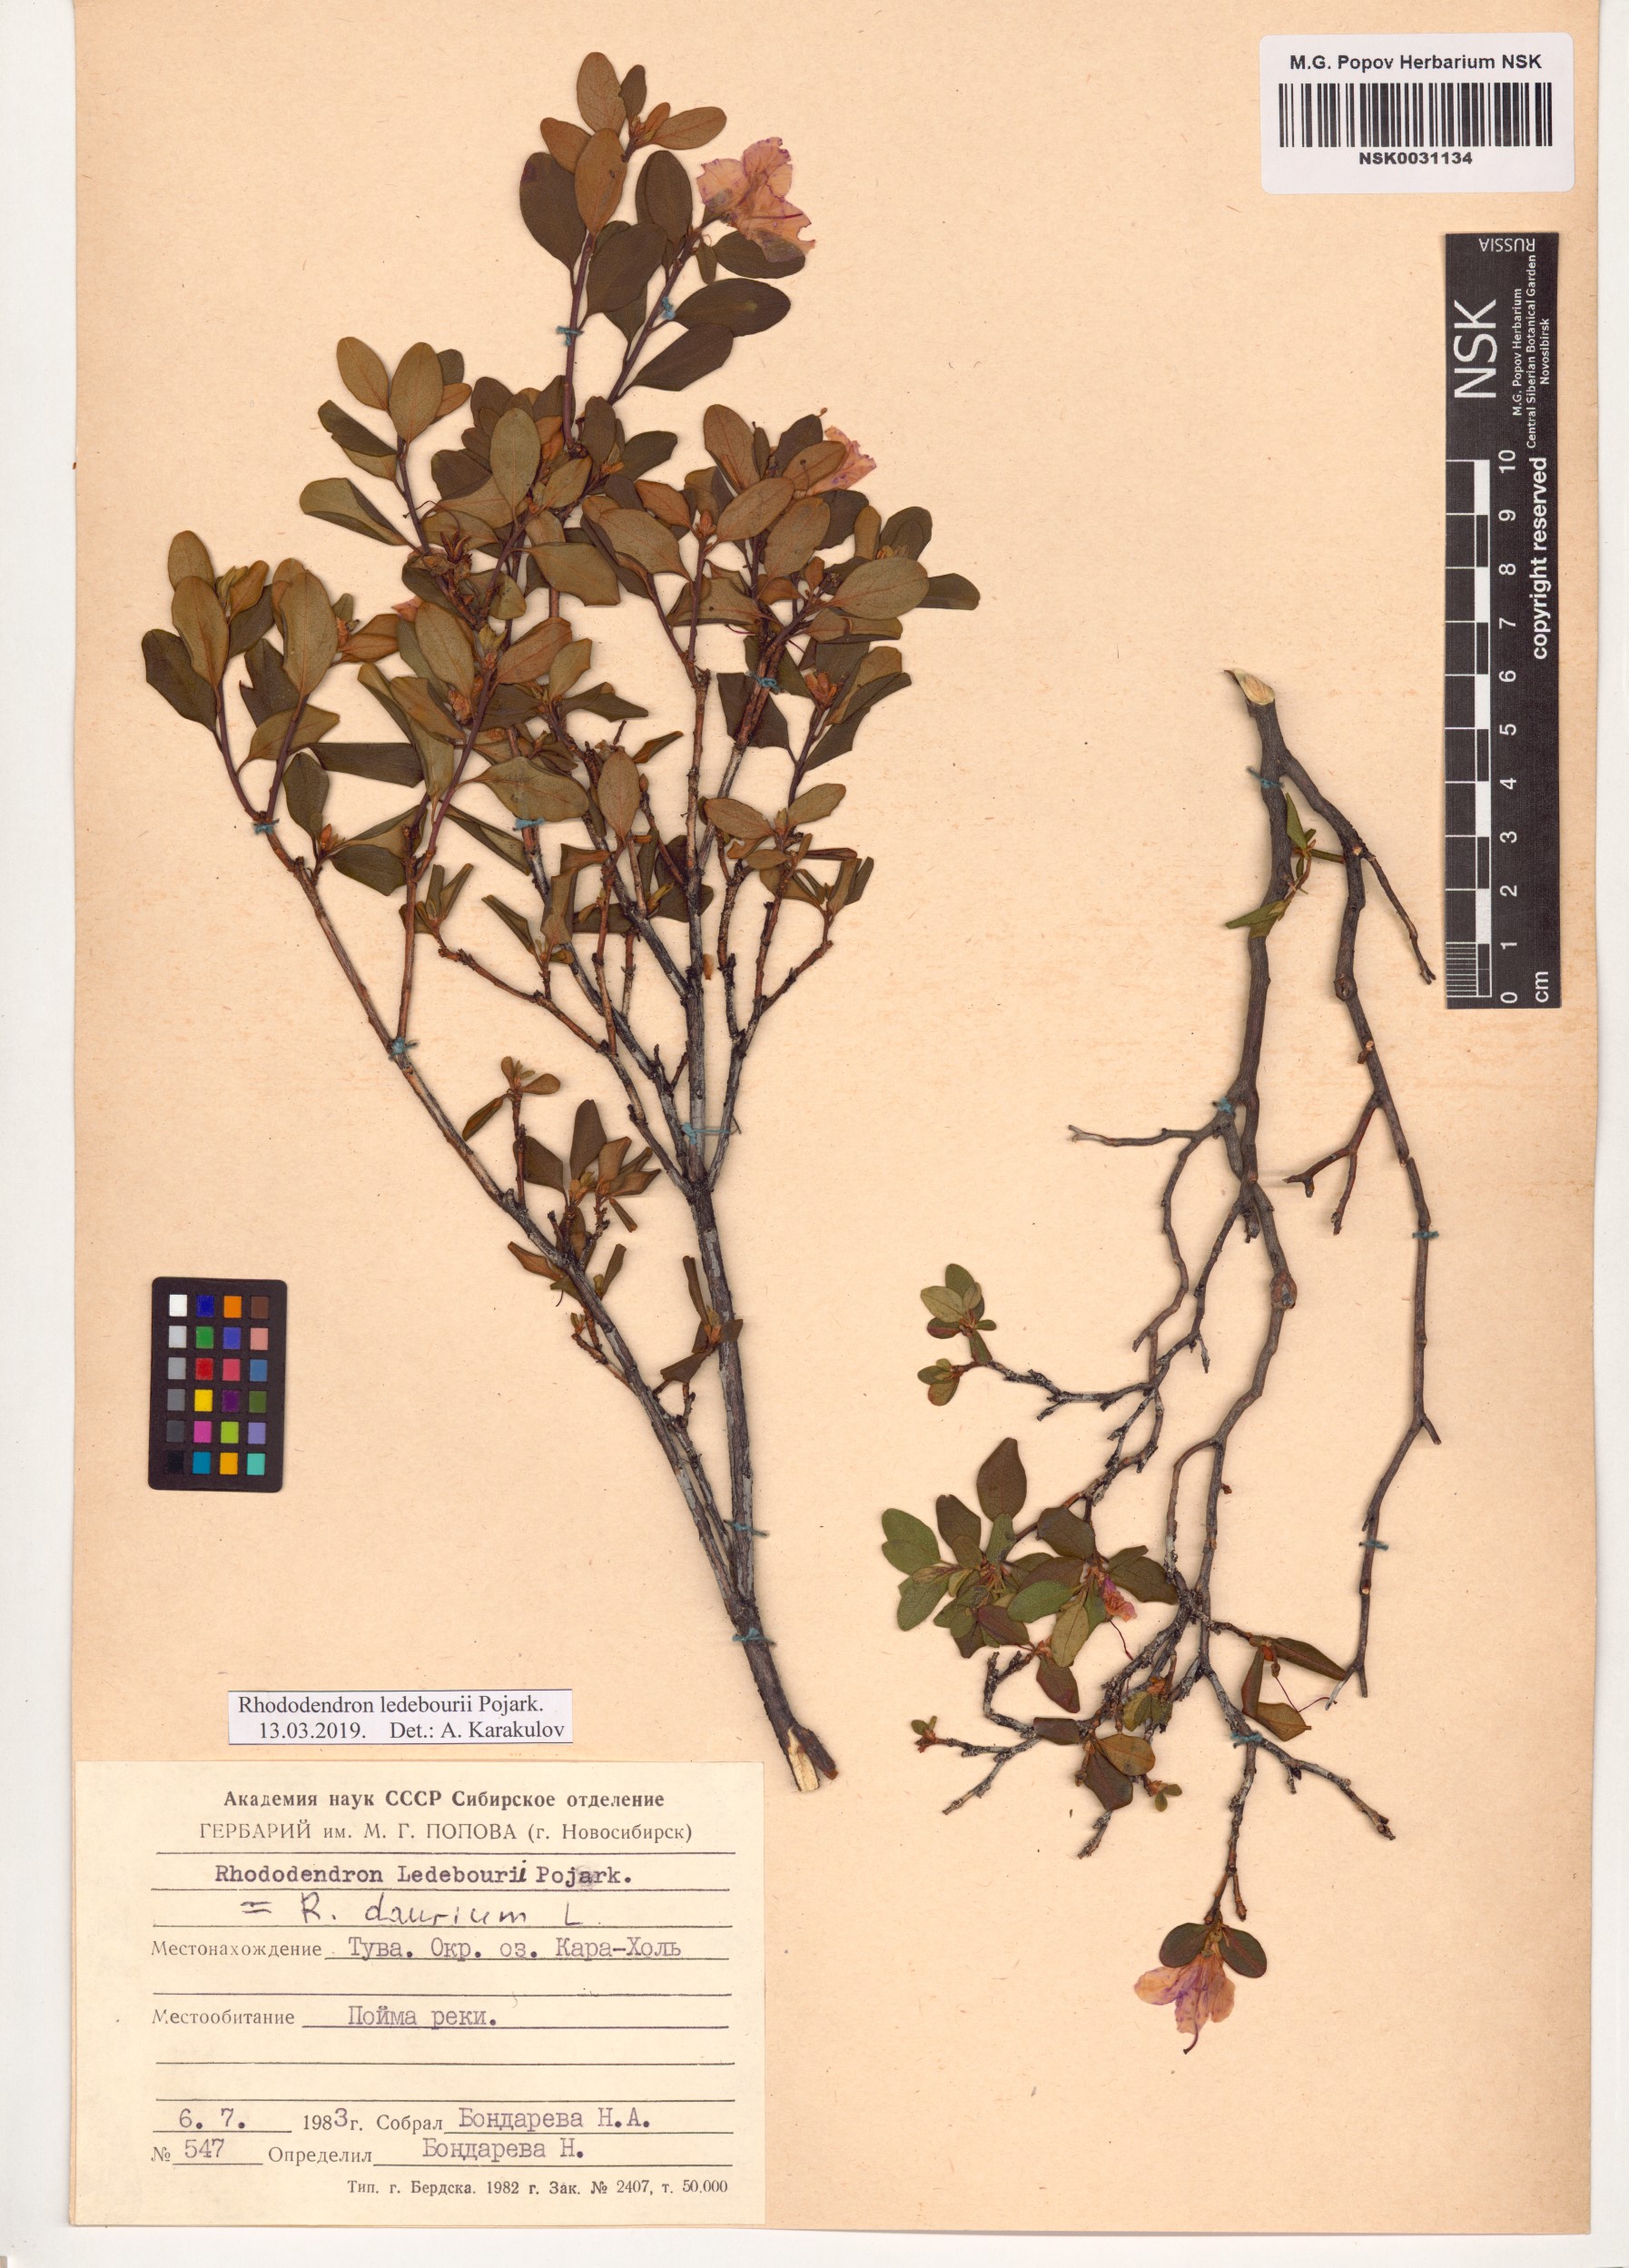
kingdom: Plantae
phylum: Tracheophyta
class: Magnoliopsida
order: Ericales
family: Ericaceae
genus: Rhododendron
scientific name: Rhododendron dauricum
